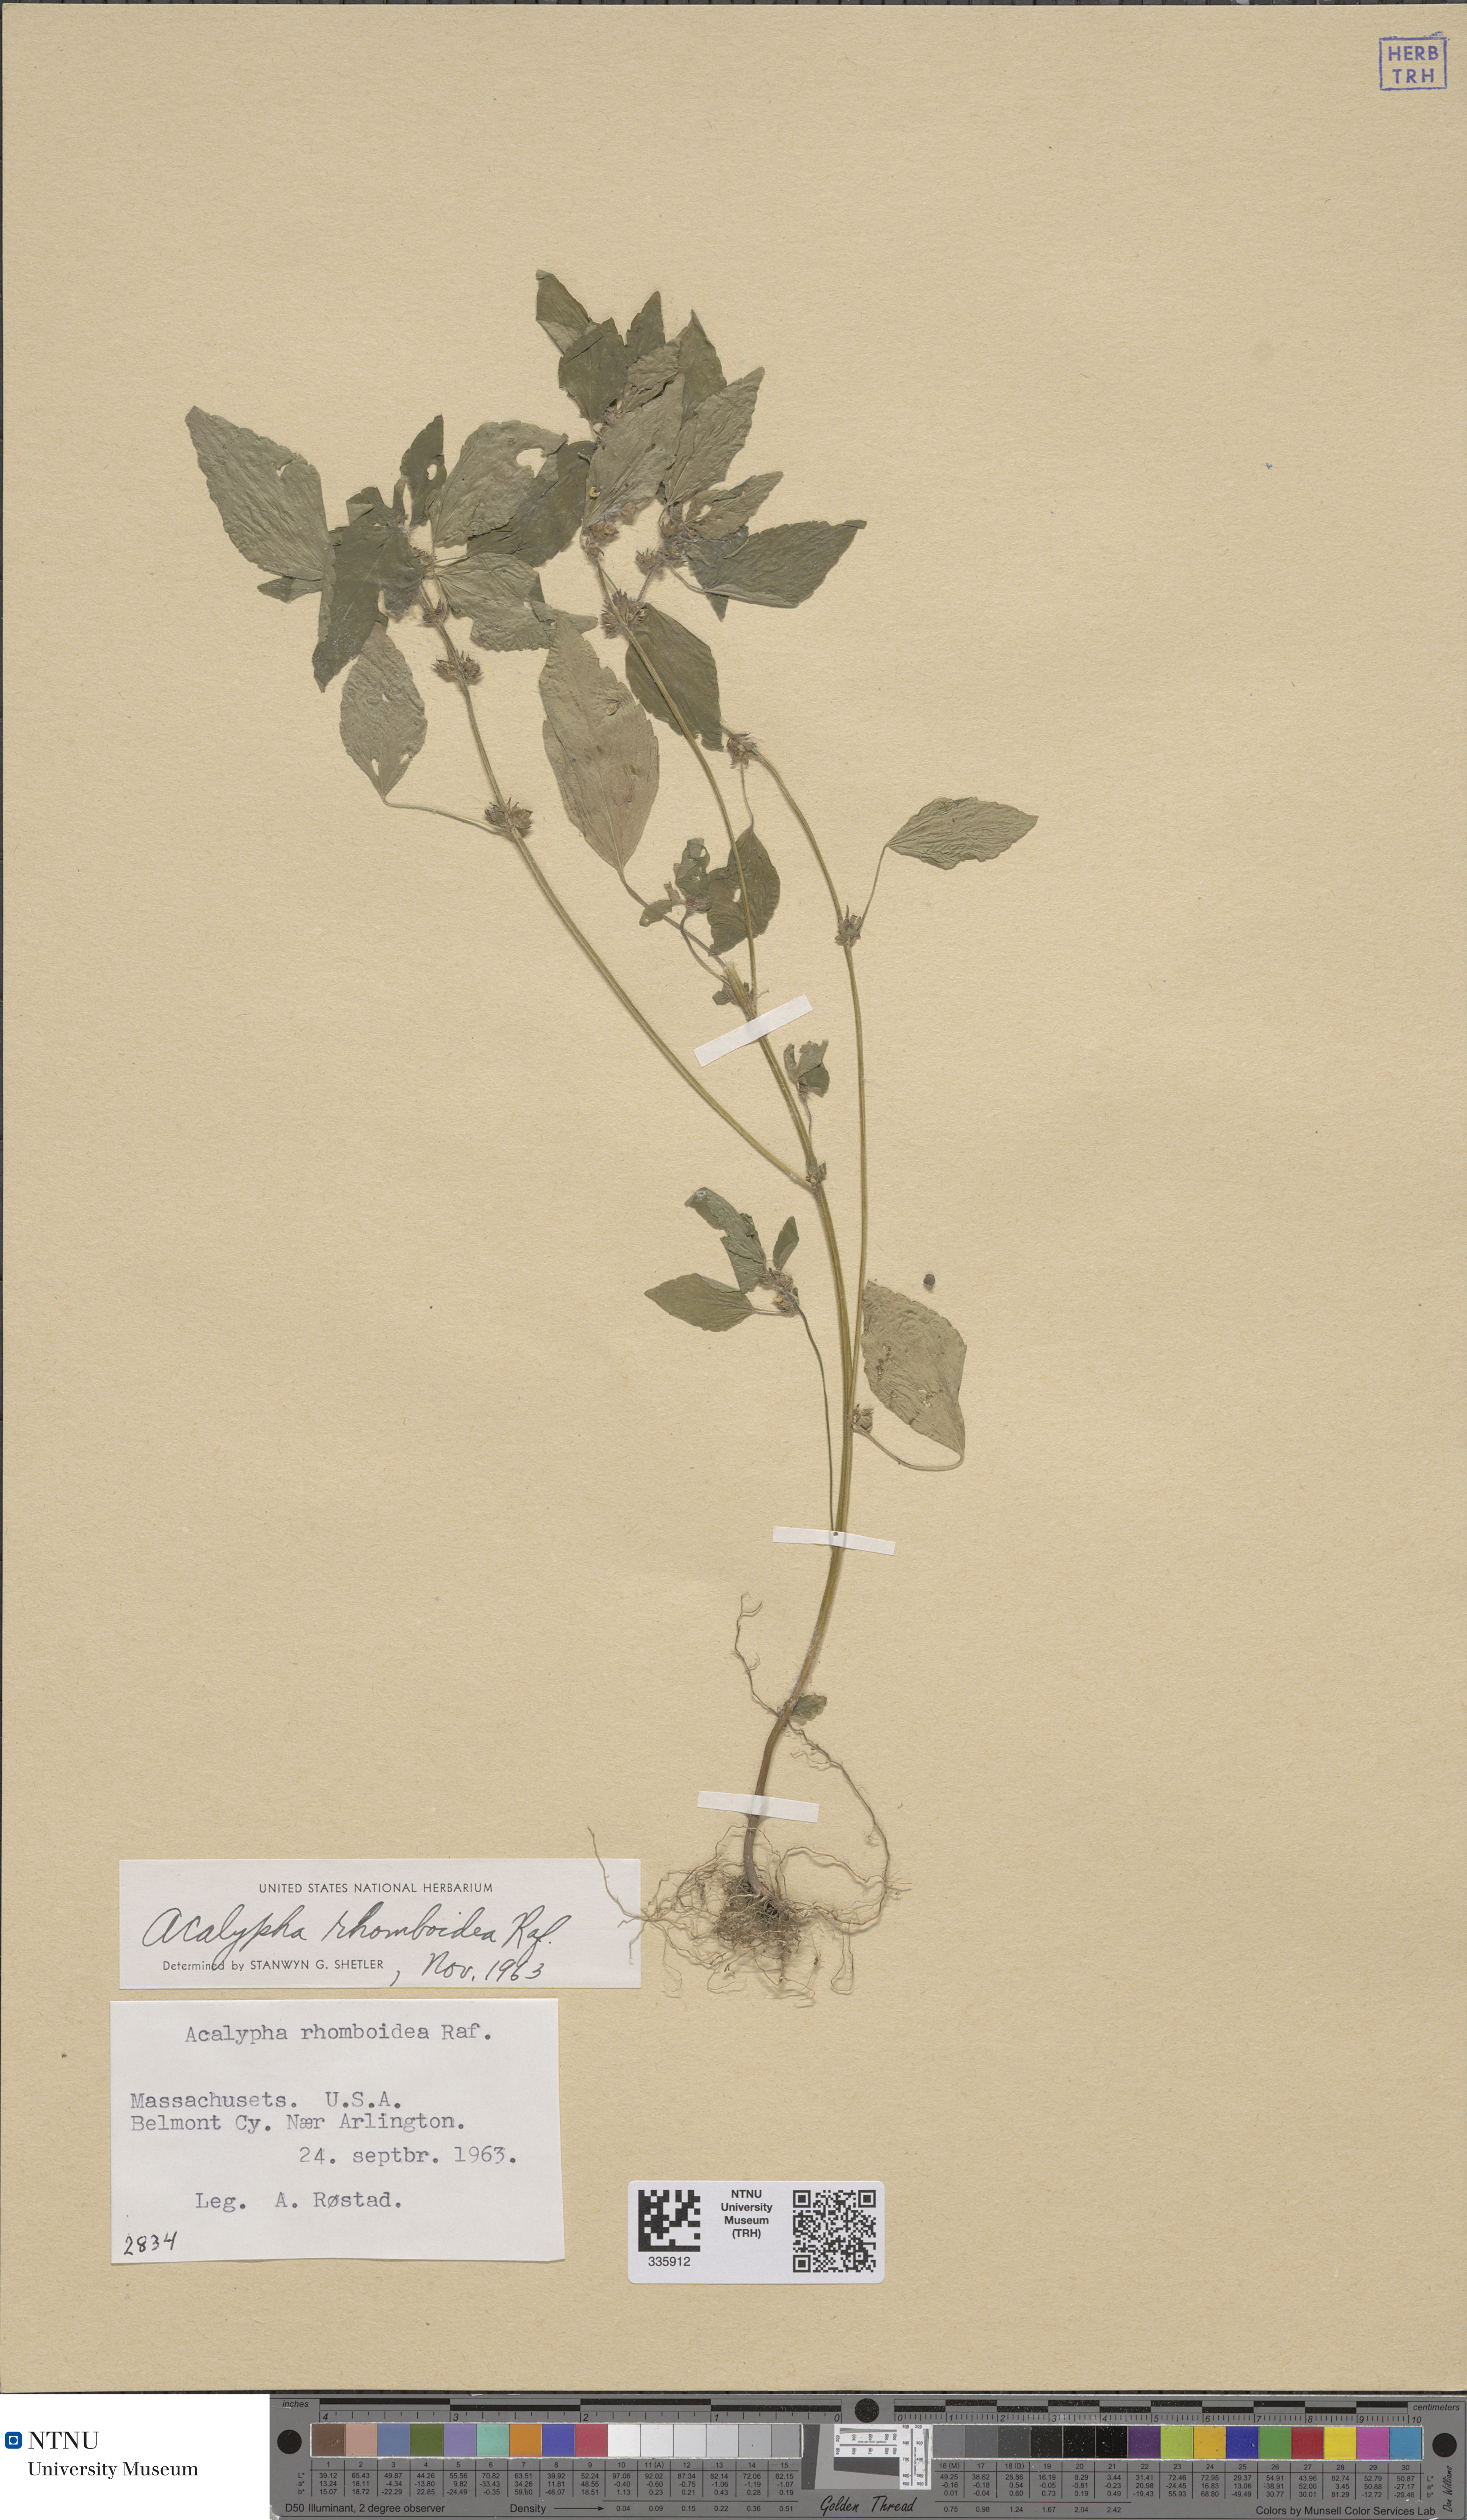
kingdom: Plantae
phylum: Tracheophyta
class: Magnoliopsida
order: Malpighiales
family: Euphorbiaceae
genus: Acalypha
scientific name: Acalypha rhomboidea
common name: Rhombic copperleaf
